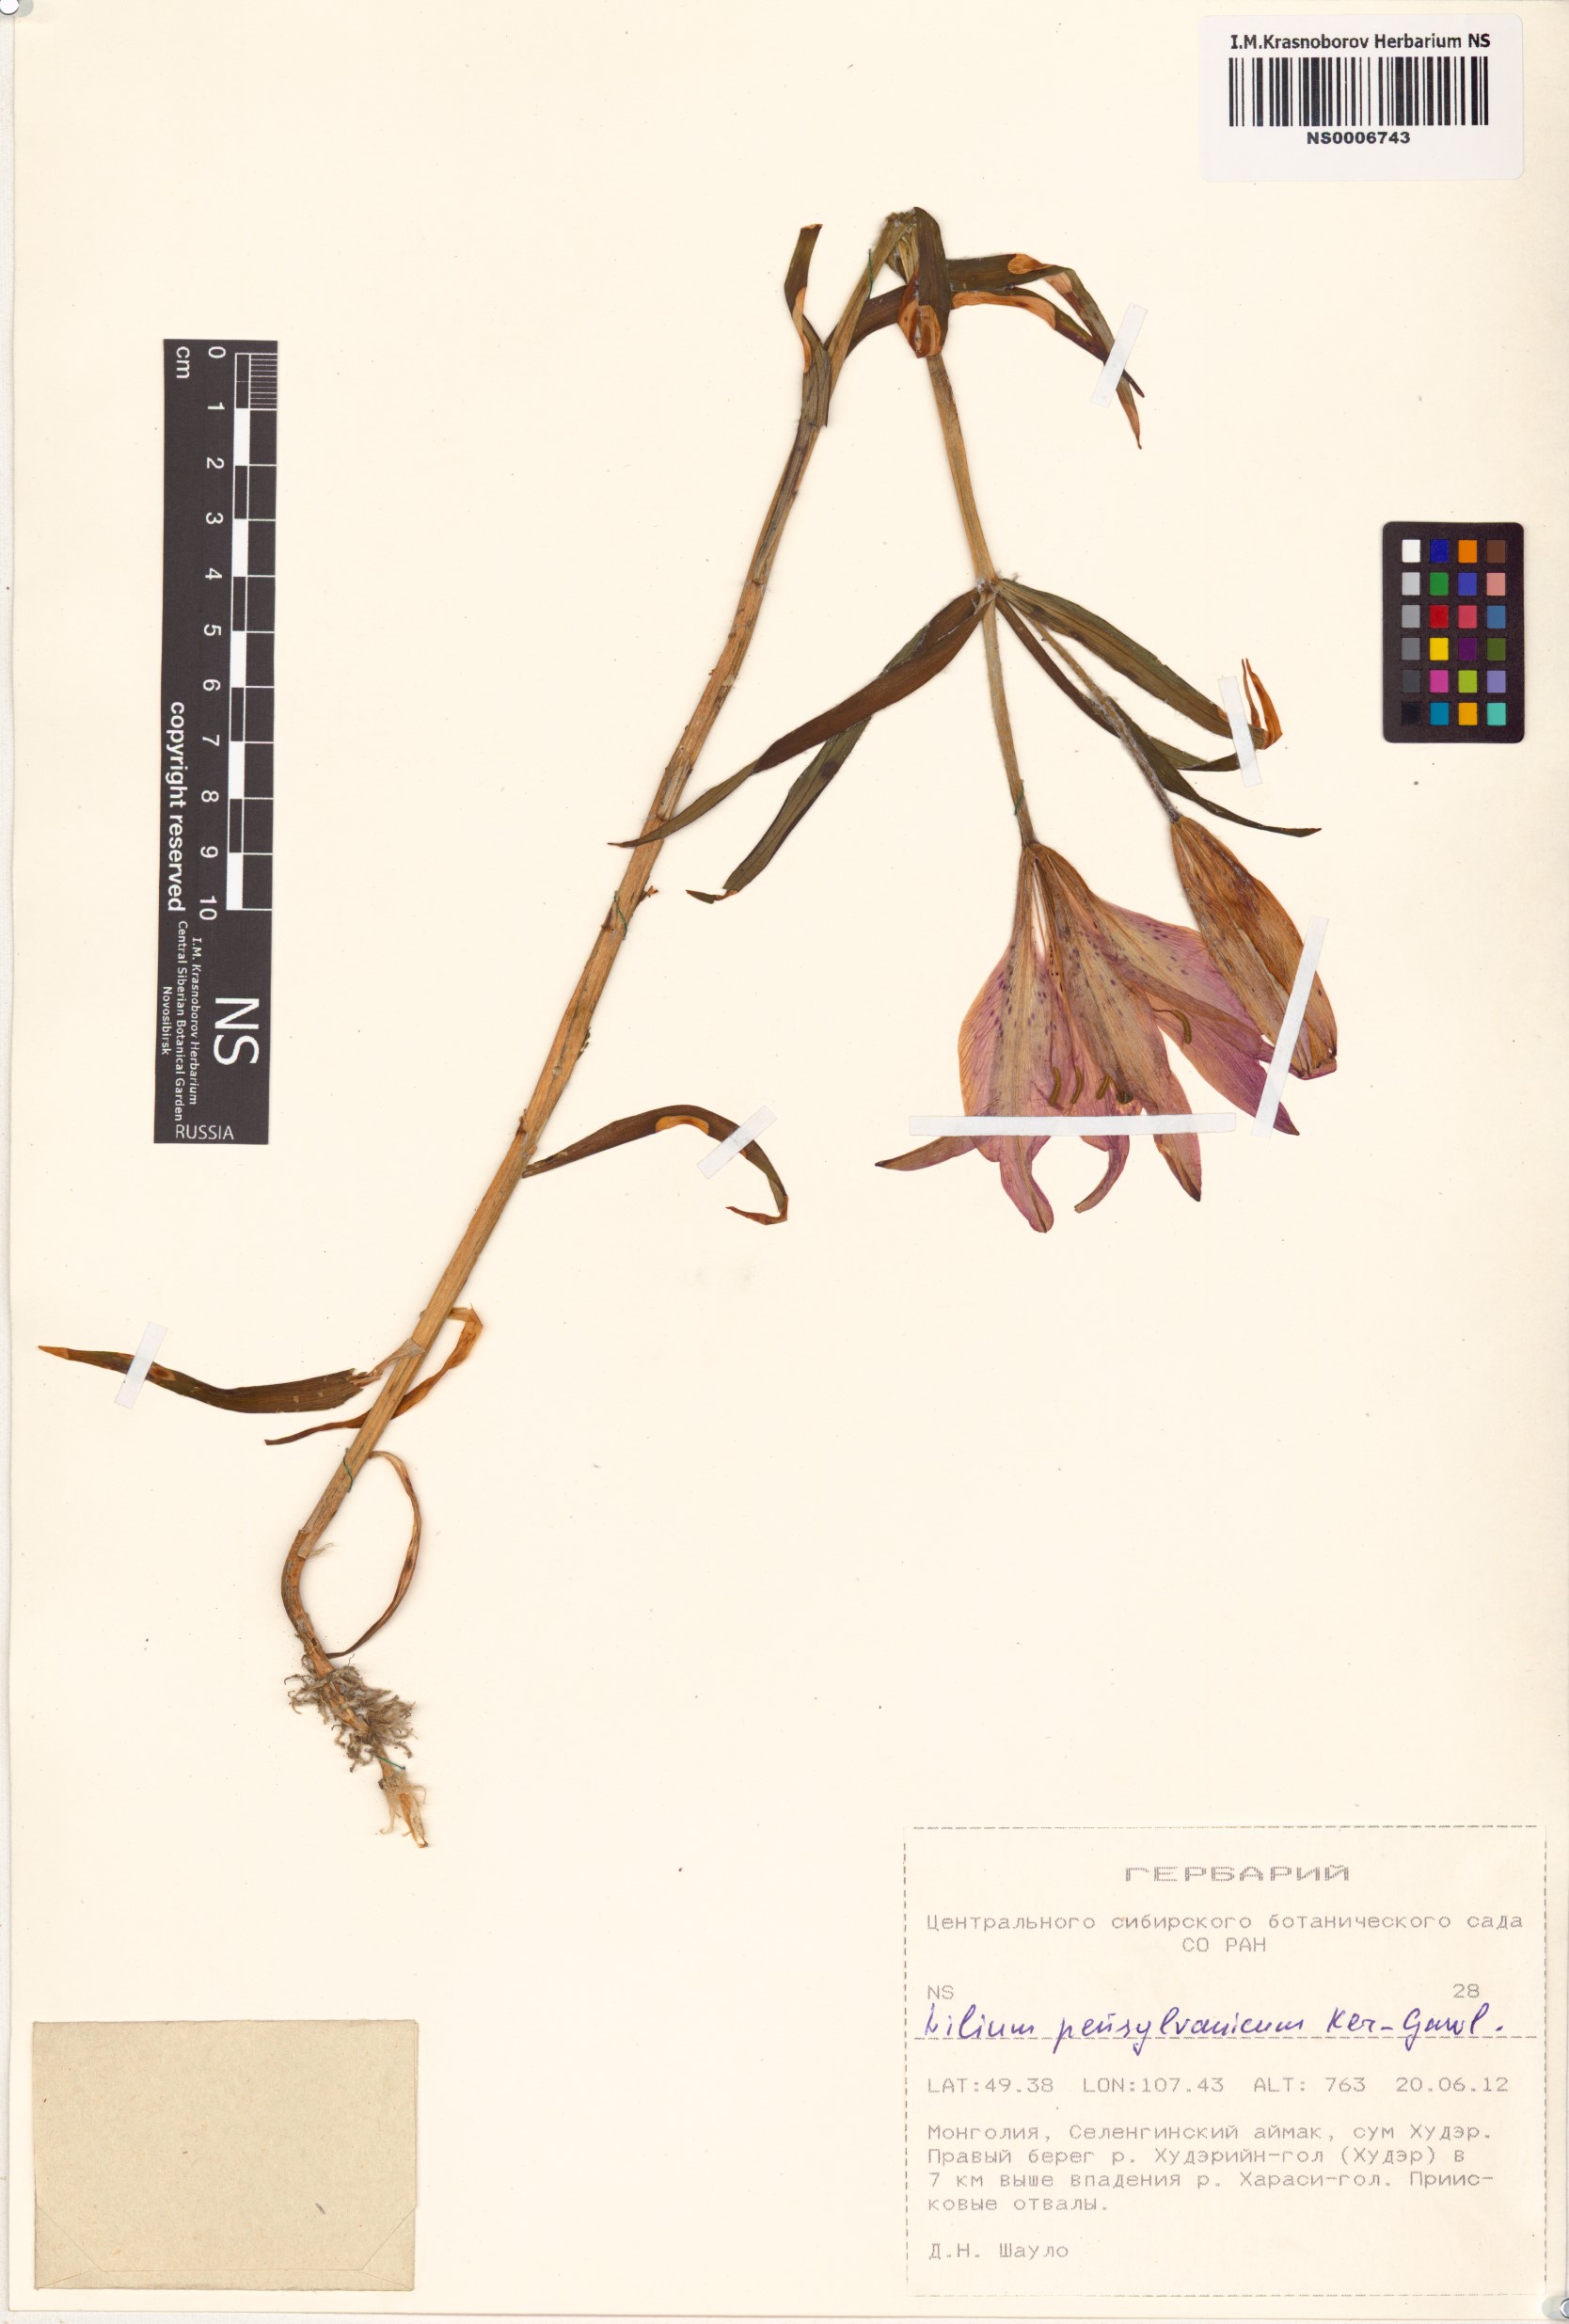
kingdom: Plantae
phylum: Tracheophyta
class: Liliopsida
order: Liliales
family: Liliaceae
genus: Lilium
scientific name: Lilium pensylvanicum
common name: Candlestick lily
